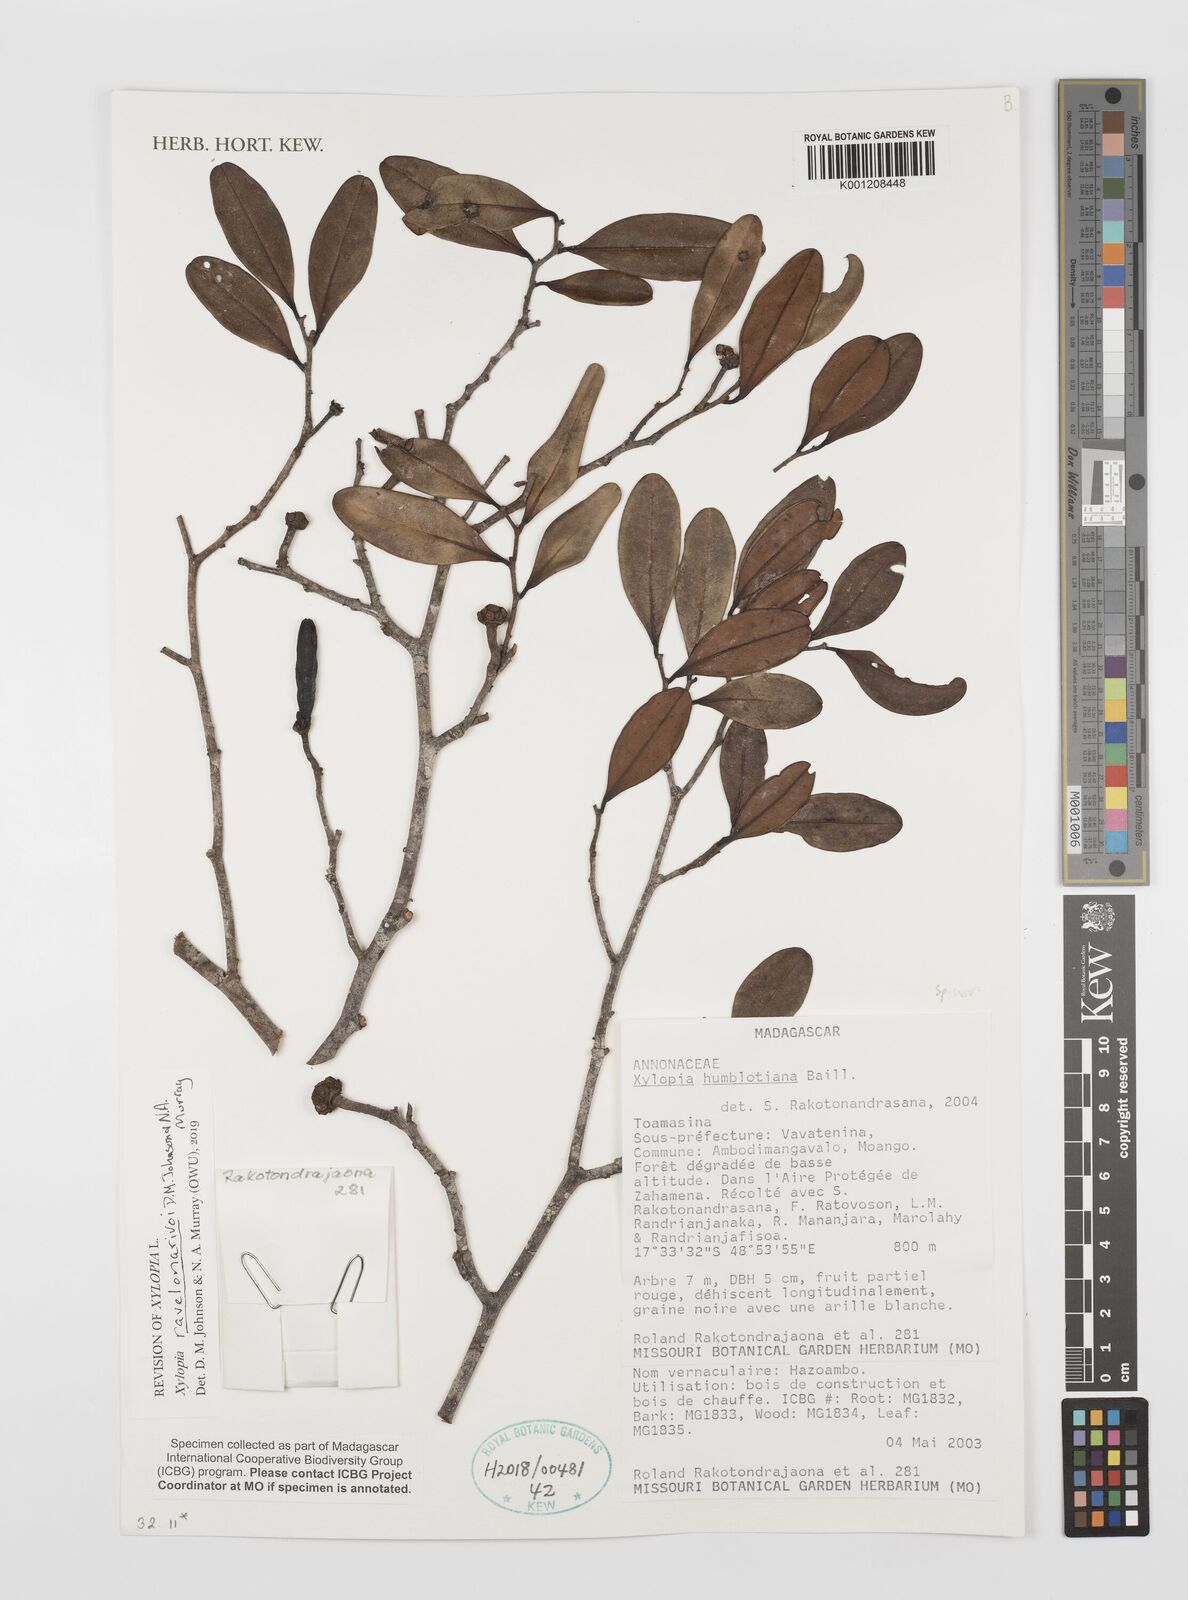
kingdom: Plantae
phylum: Tracheophyta
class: Magnoliopsida
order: Magnoliales
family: Annonaceae
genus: Xylopia
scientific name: Xylopia humblotiana
